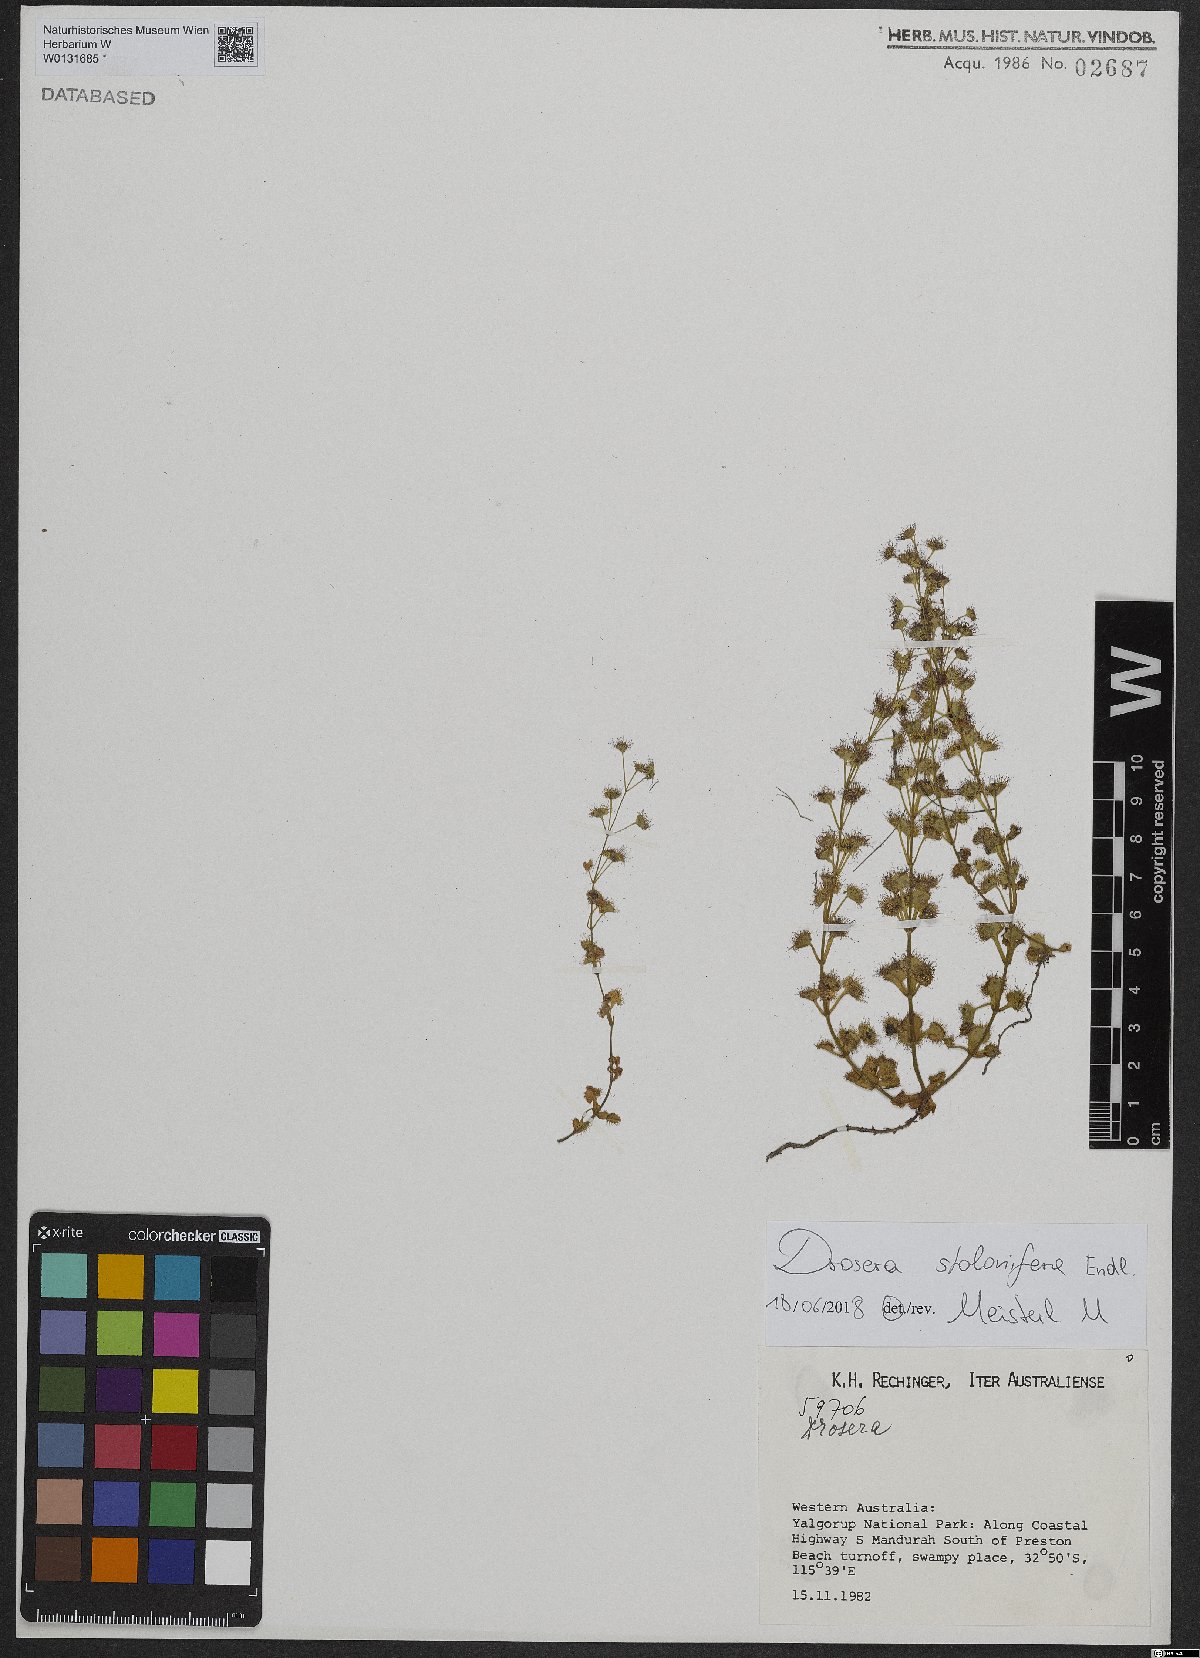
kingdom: Plantae
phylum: Tracheophyta
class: Magnoliopsida
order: Caryophyllales
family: Droseraceae
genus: Drosera
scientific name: Drosera stolonifera
